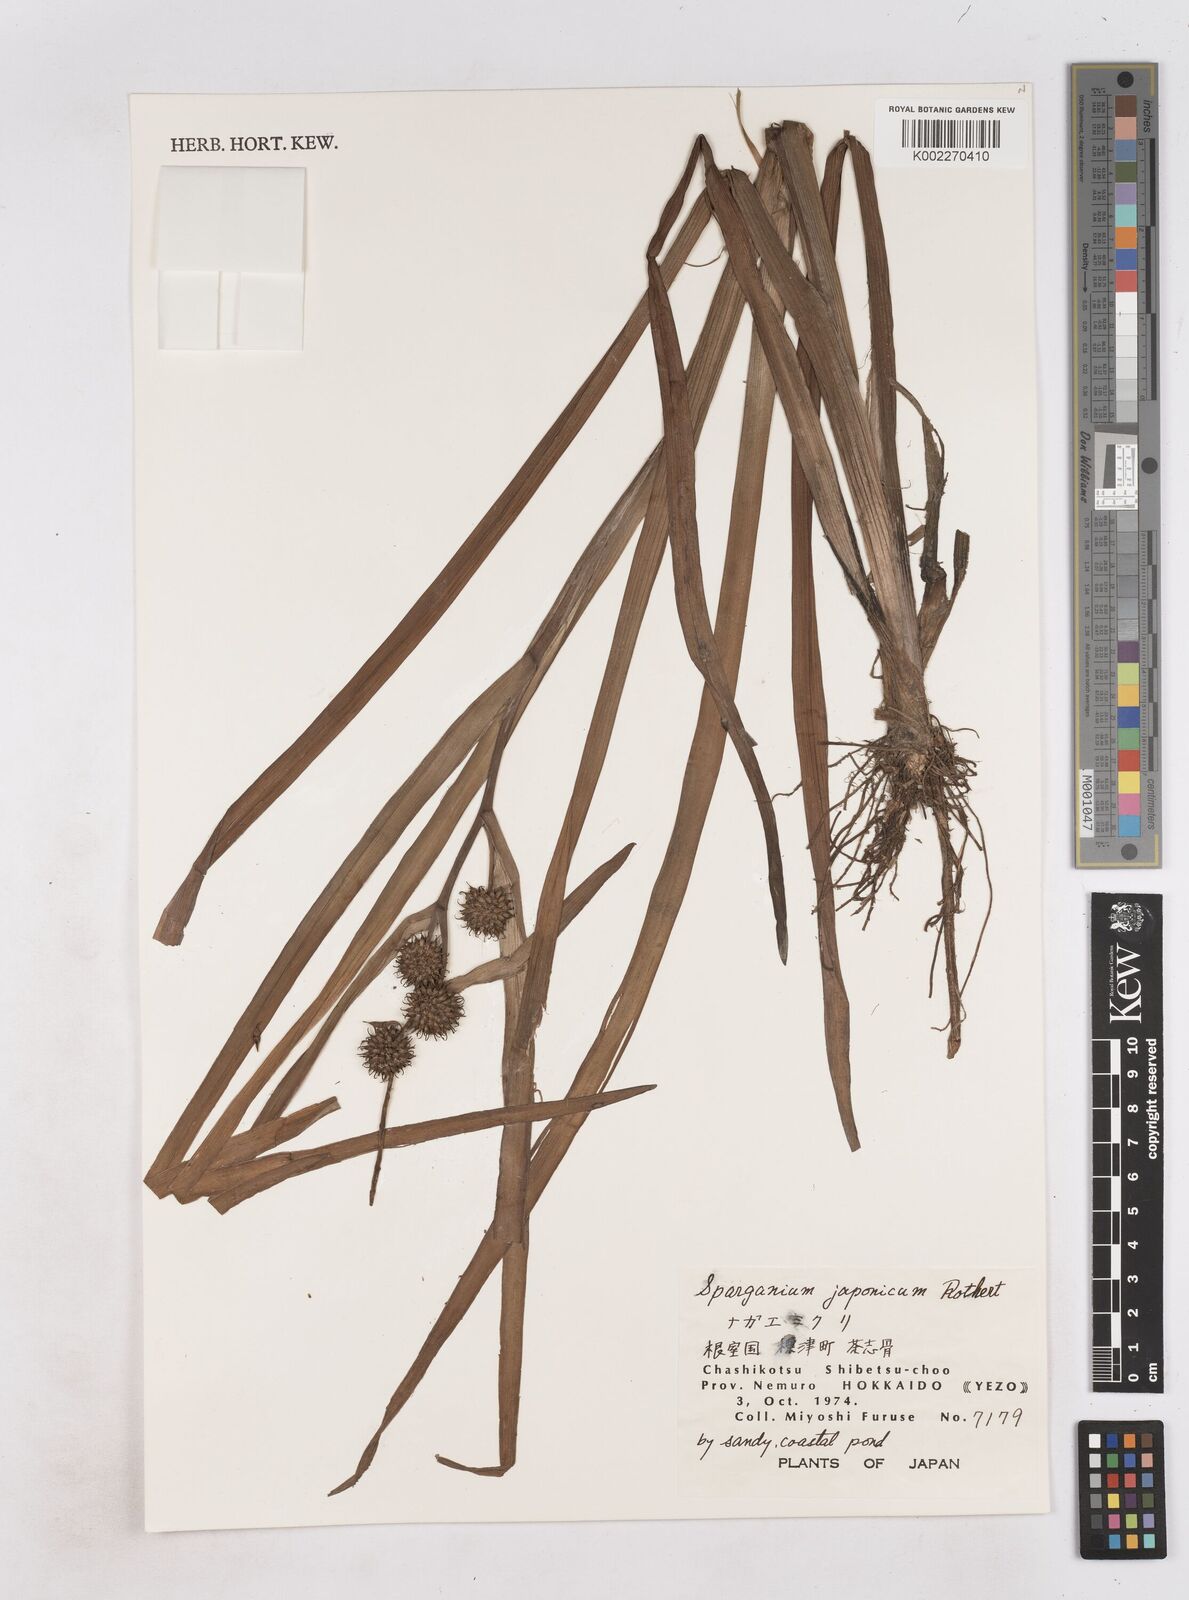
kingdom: Plantae
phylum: Tracheophyta
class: Liliopsida
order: Poales
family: Typhaceae
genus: Sparganium
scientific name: Sparganium japonicum
